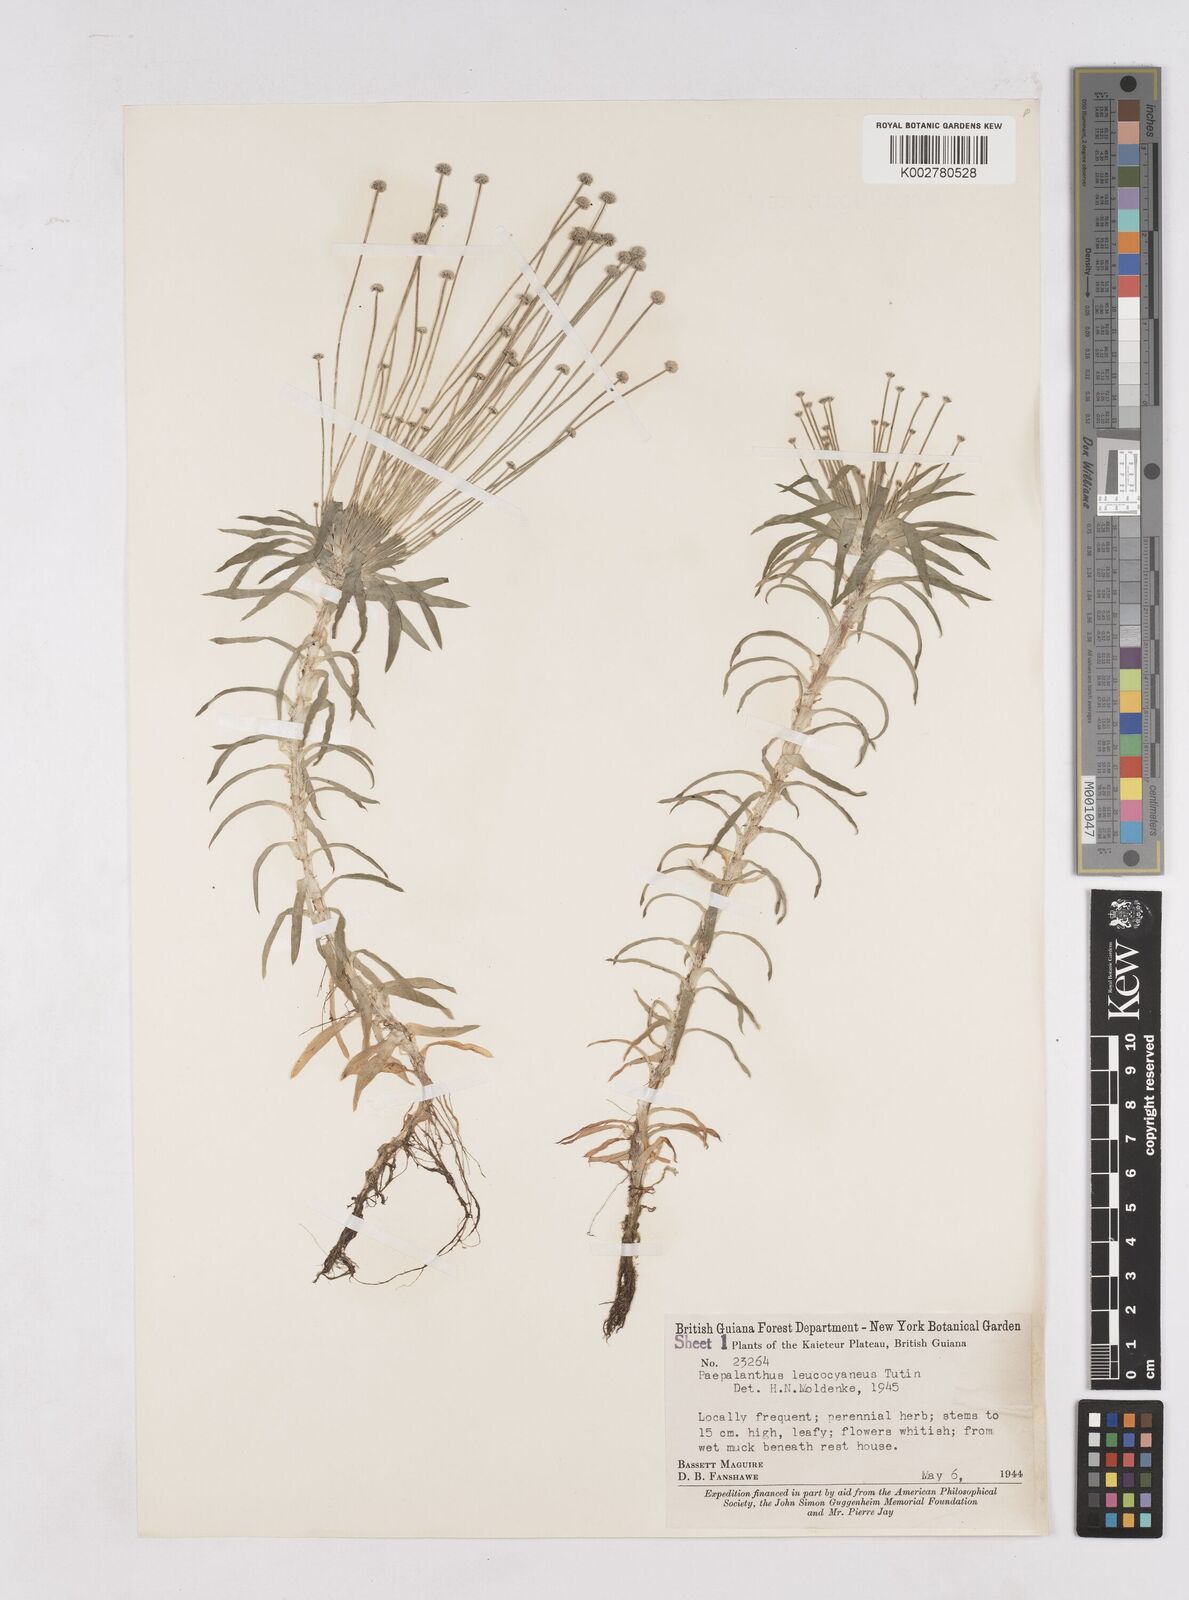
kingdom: Plantae
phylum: Tracheophyta
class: Liliopsida
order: Poales
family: Eriocaulaceae
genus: Paepalanthus
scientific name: Paepalanthus oyapockensis
